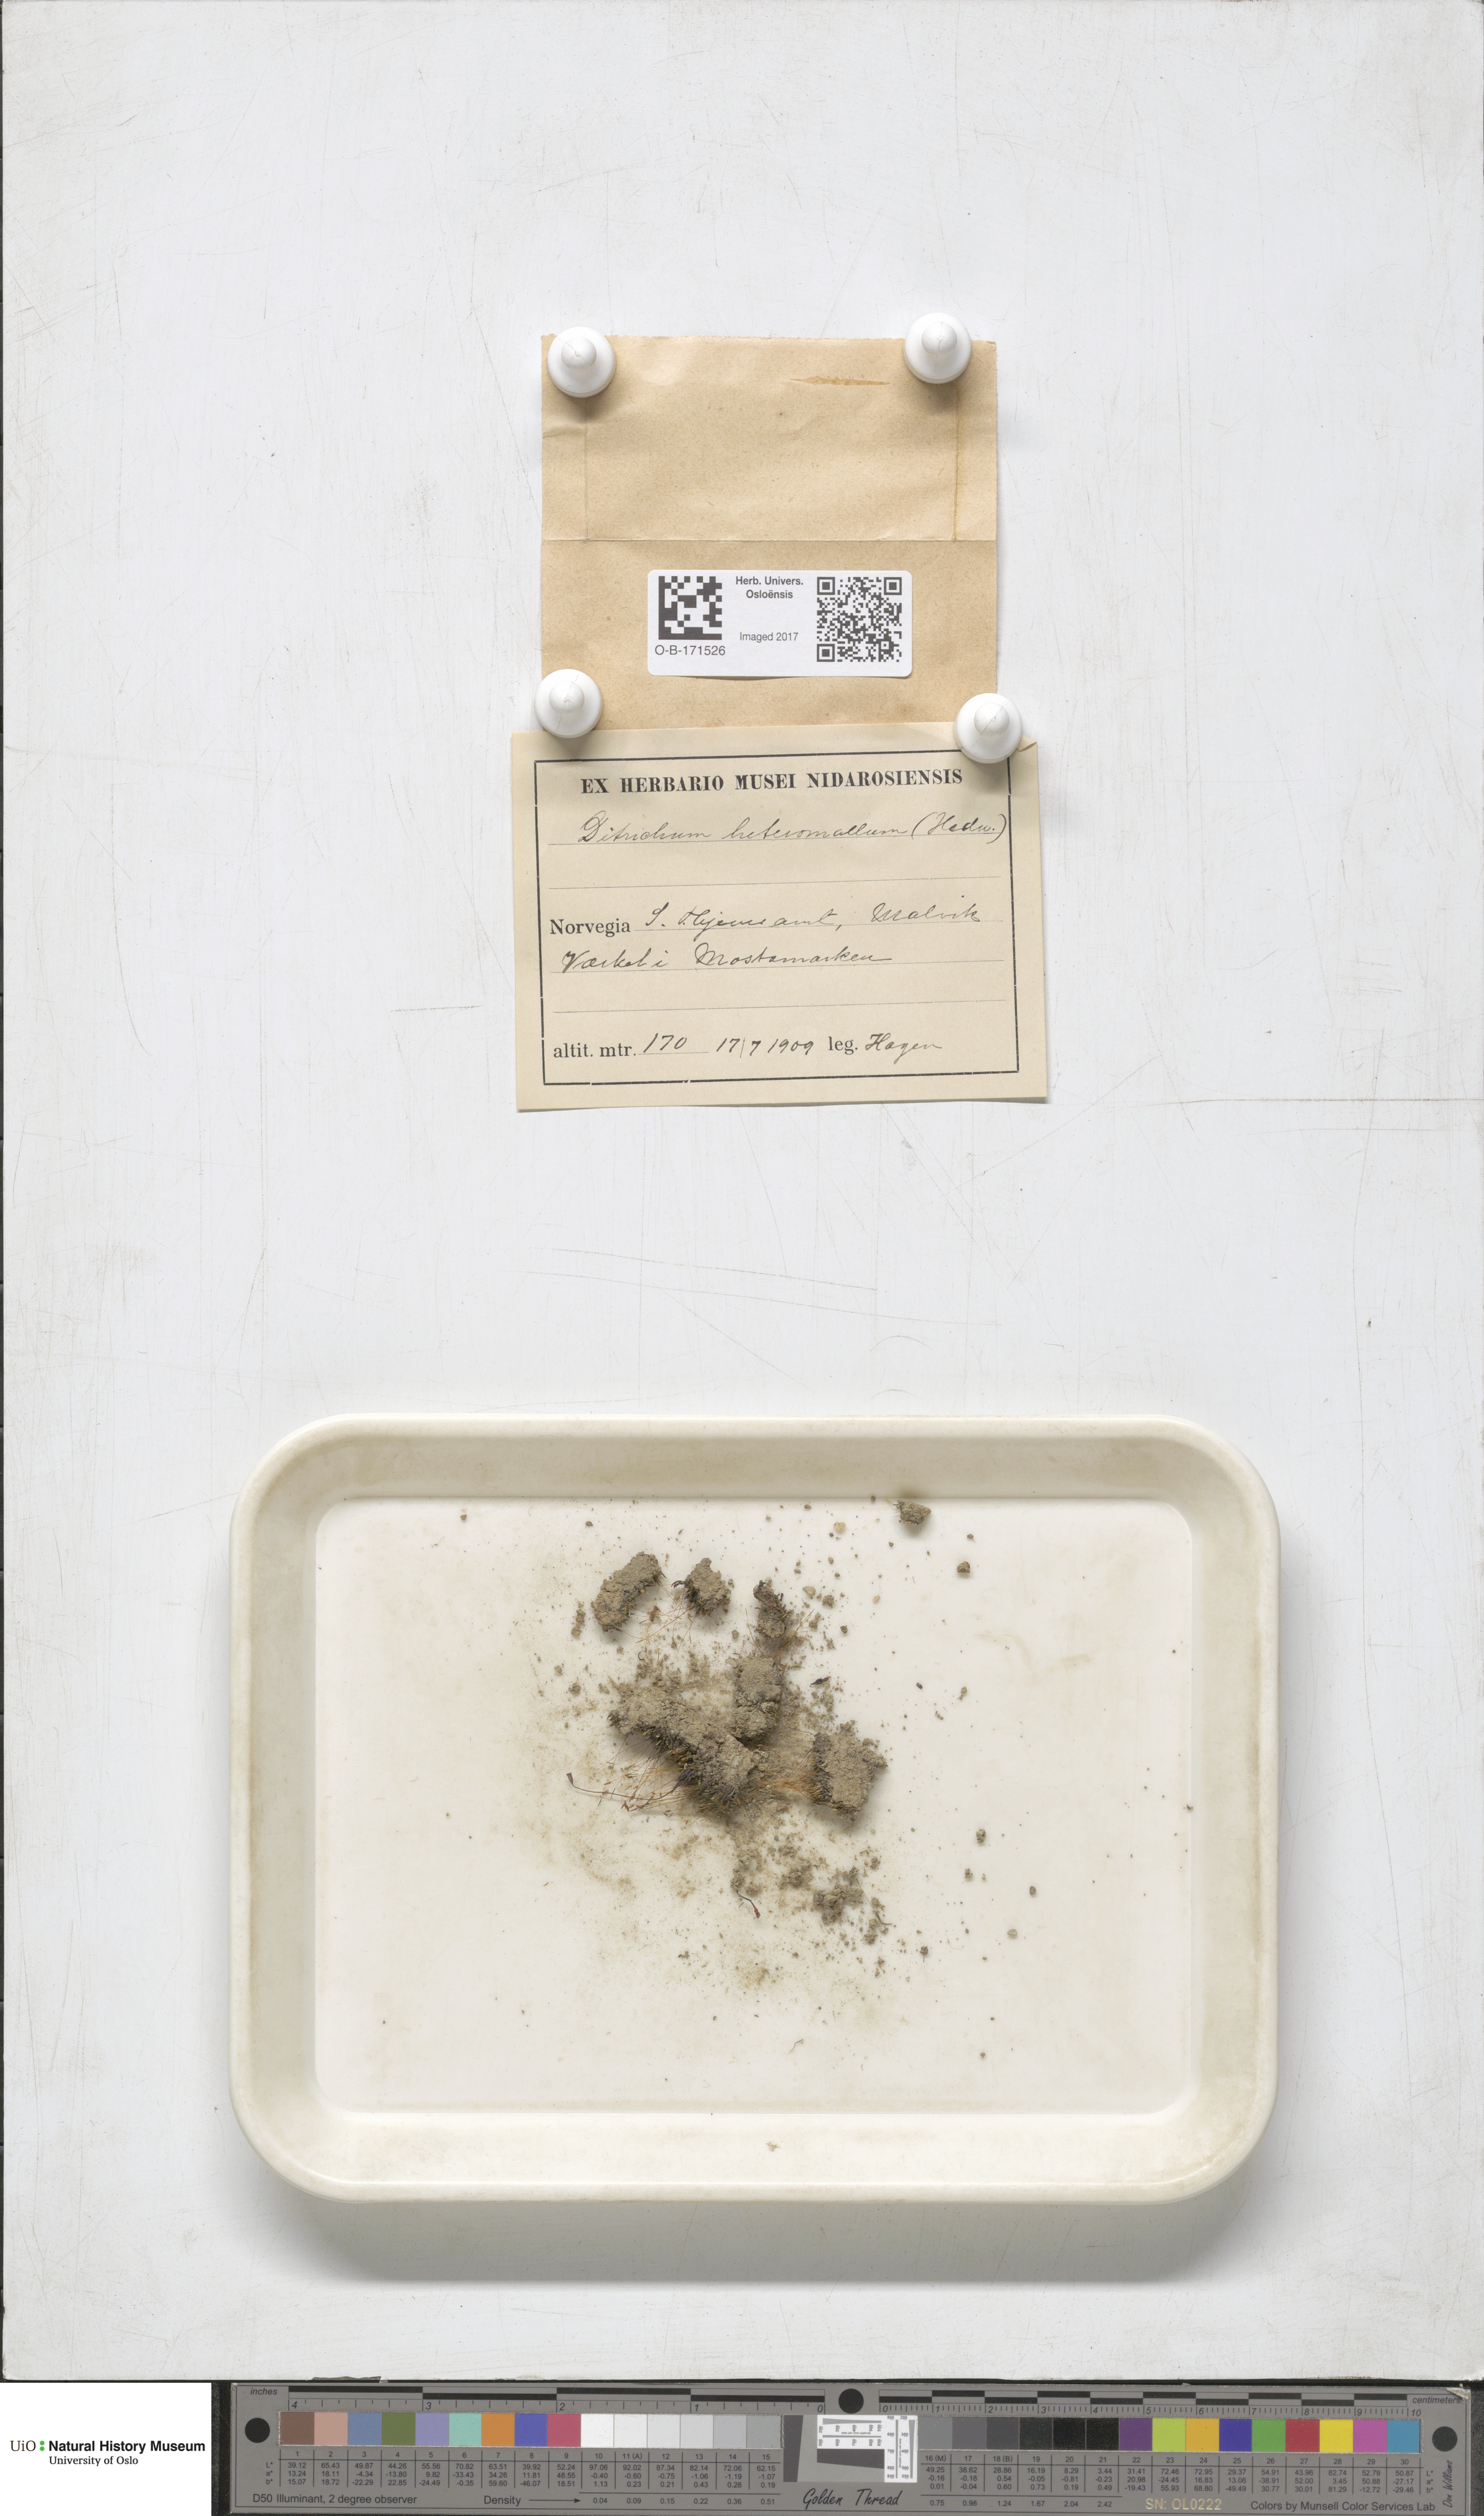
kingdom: Plantae
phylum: Bryophyta
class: Bryopsida
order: Dicranales
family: Ditrichaceae
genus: Ditrichum
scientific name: Ditrichum heteromallum
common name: Curve-leaved ditrichum
